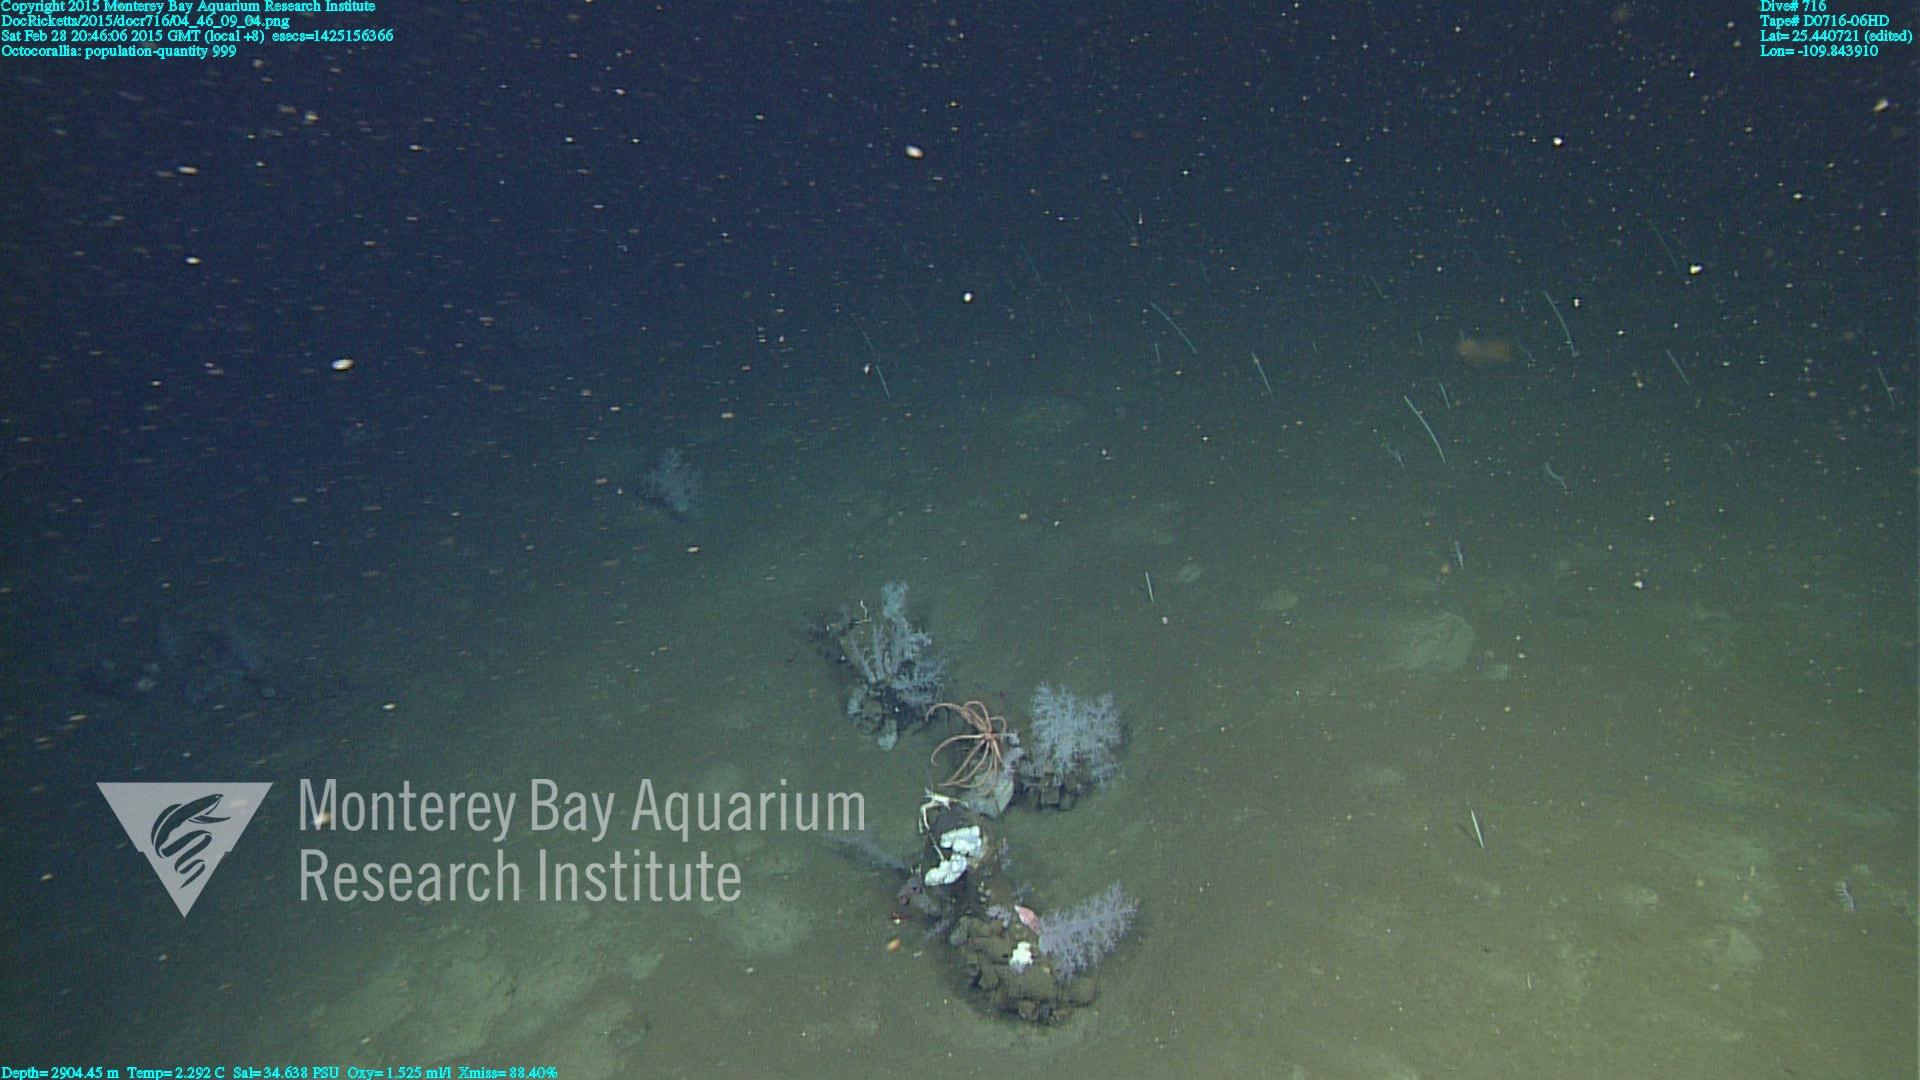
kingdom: Animalia
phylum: Cnidaria
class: Anthozoa
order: Malacalcyonacea
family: Alcyoniidae
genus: Gersemia
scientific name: Gersemia juliepackardae
